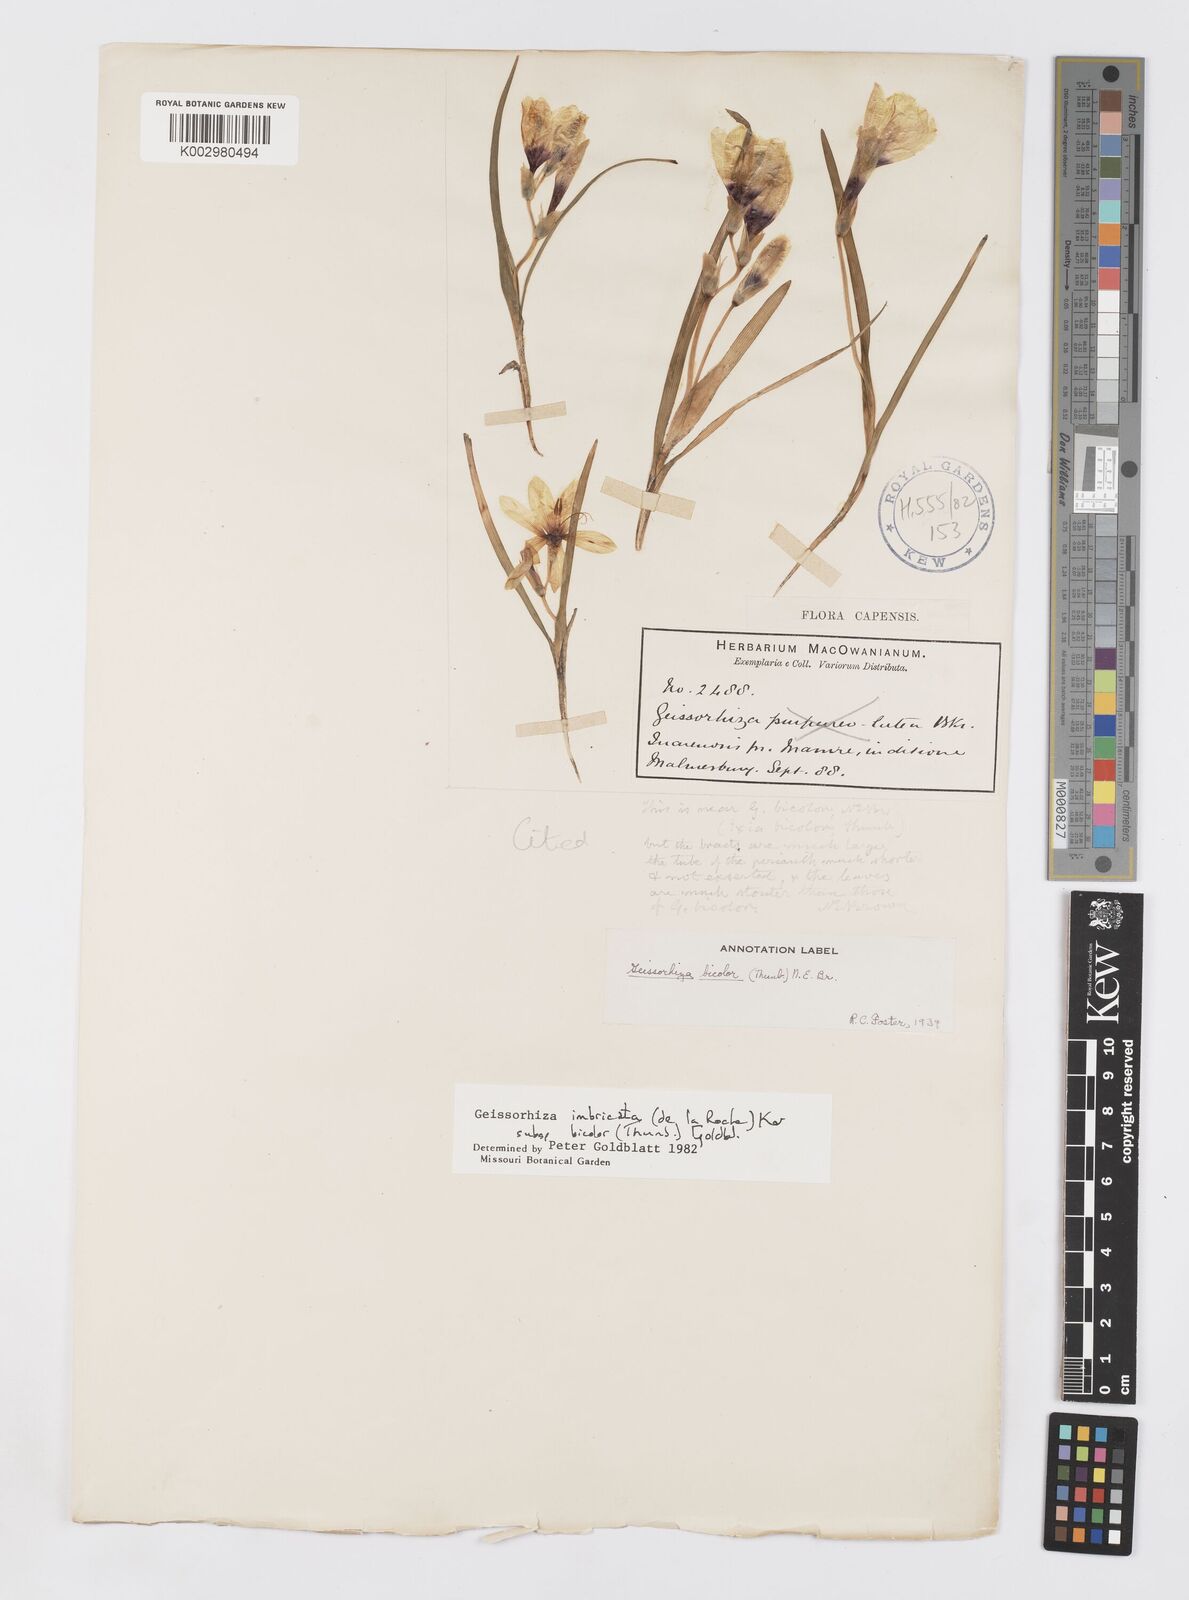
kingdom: Plantae
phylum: Tracheophyta
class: Liliopsida
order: Asparagales
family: Iridaceae
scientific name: Iridaceae
